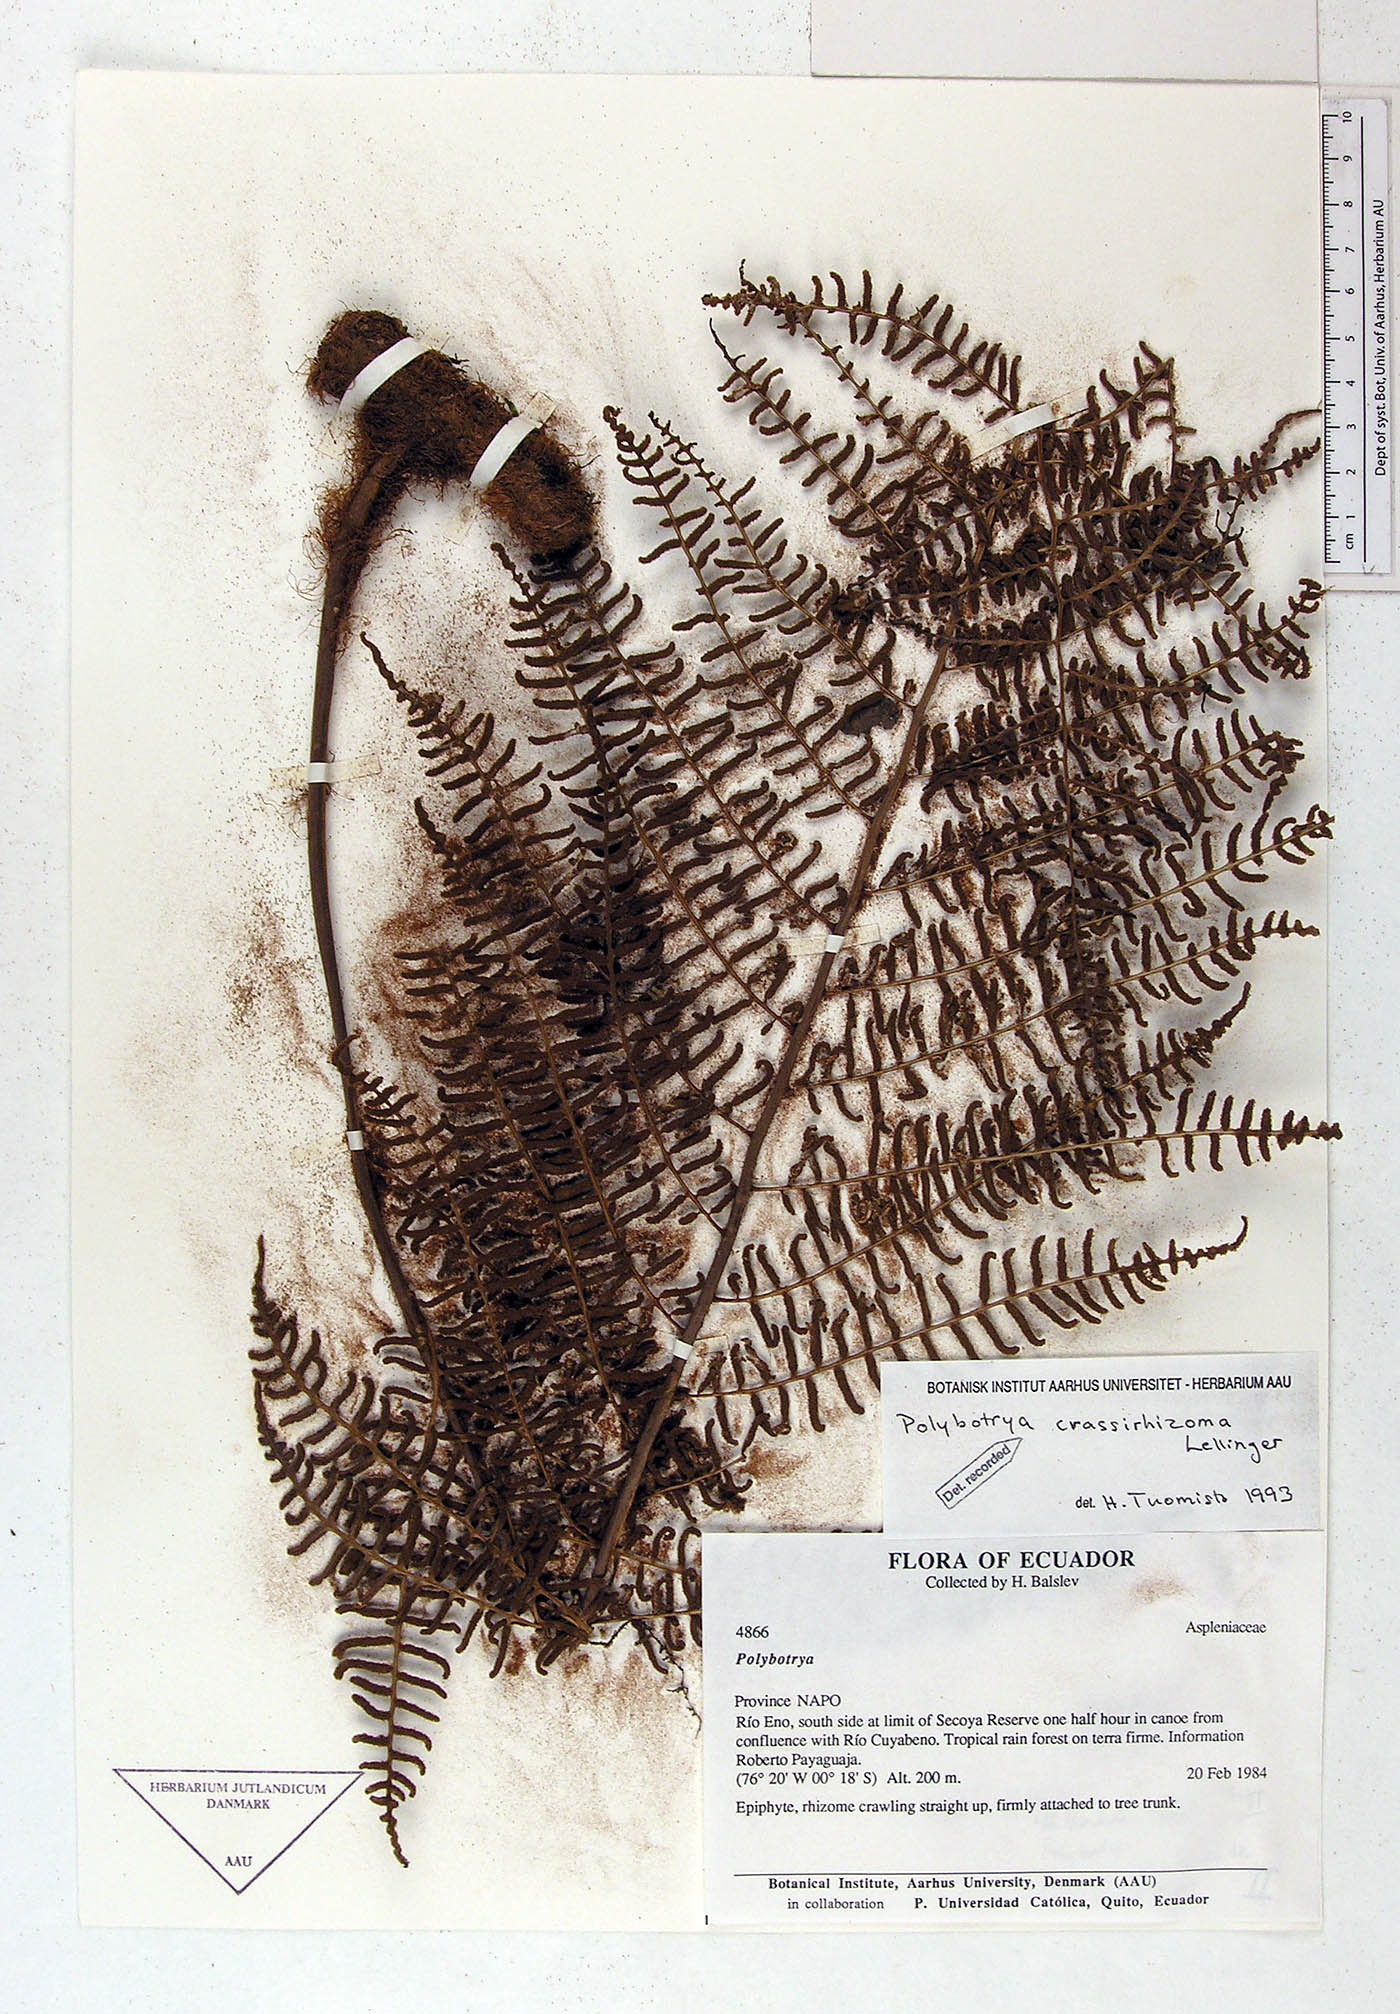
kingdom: Plantae
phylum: Tracheophyta
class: Polypodiopsida
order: Polypodiales
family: Dryopteridaceae
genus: Polybotrya
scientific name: Polybotrya crassirhizoma
